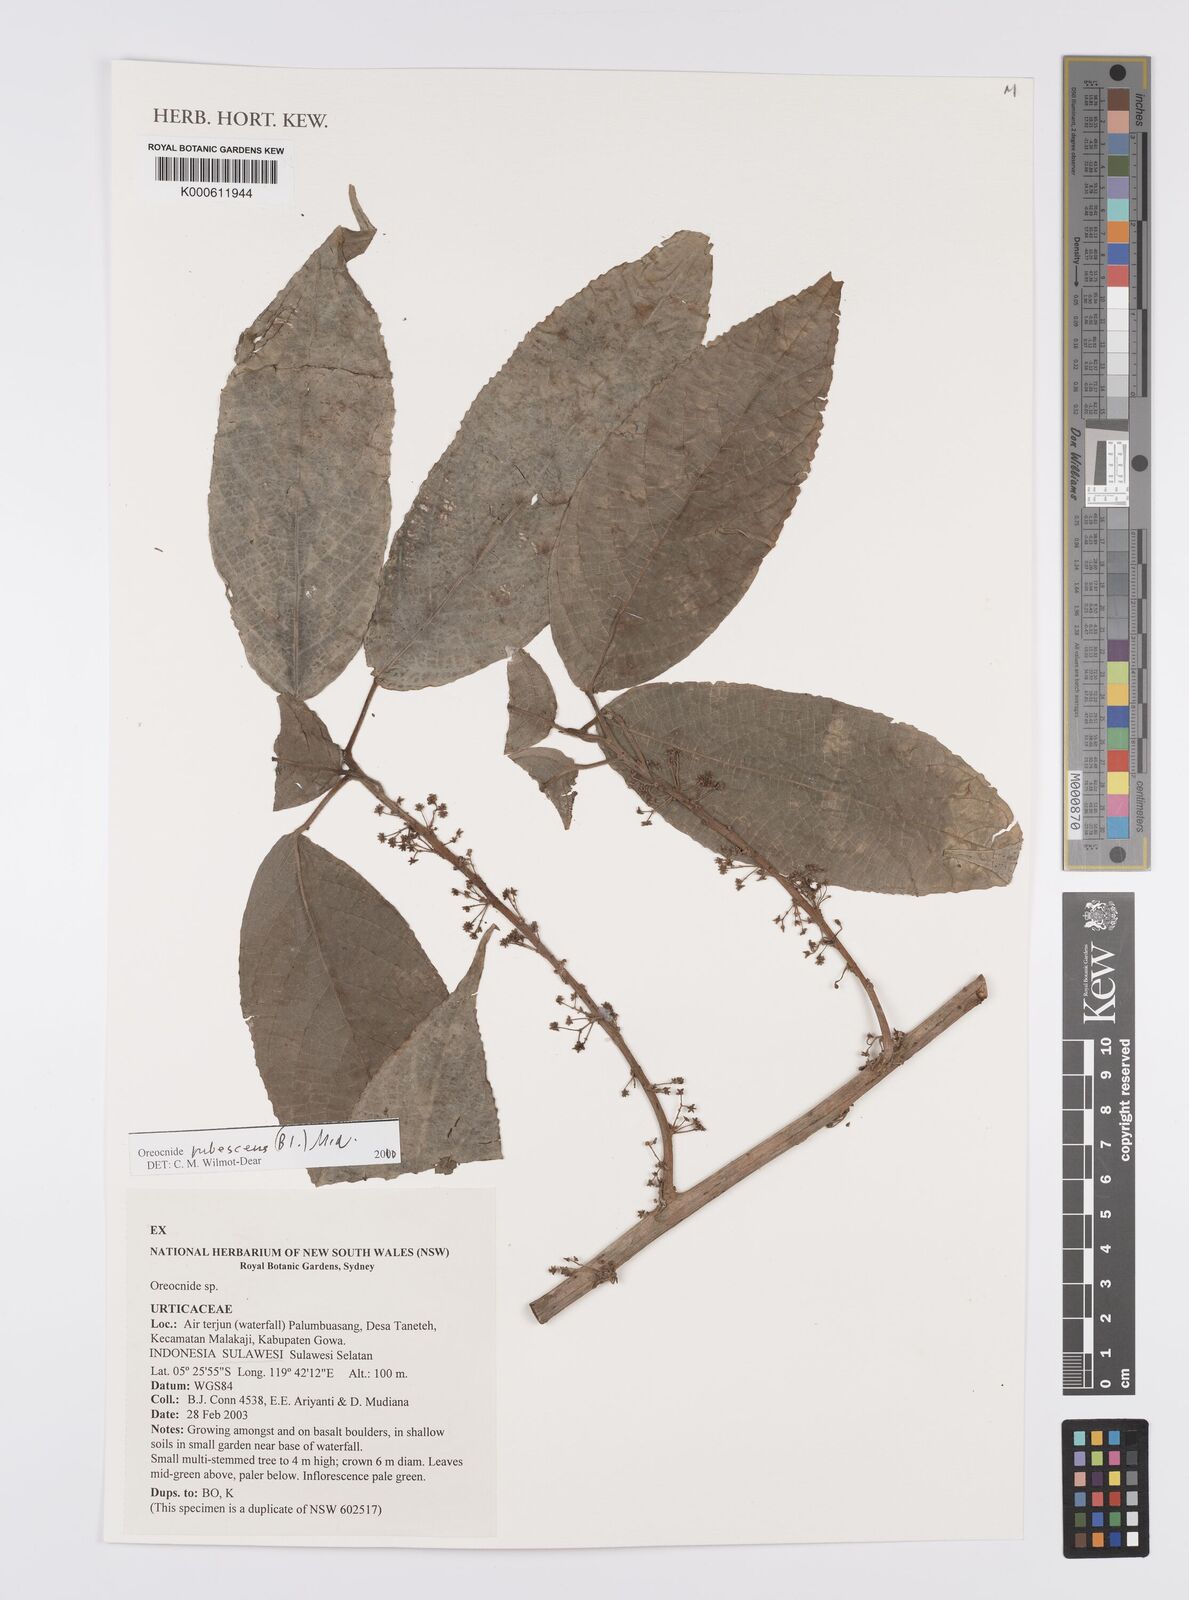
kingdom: Plantae
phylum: Tracheophyta
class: Magnoliopsida
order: Rosales
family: Urticaceae
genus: Oreocnide
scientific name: Oreocnide
